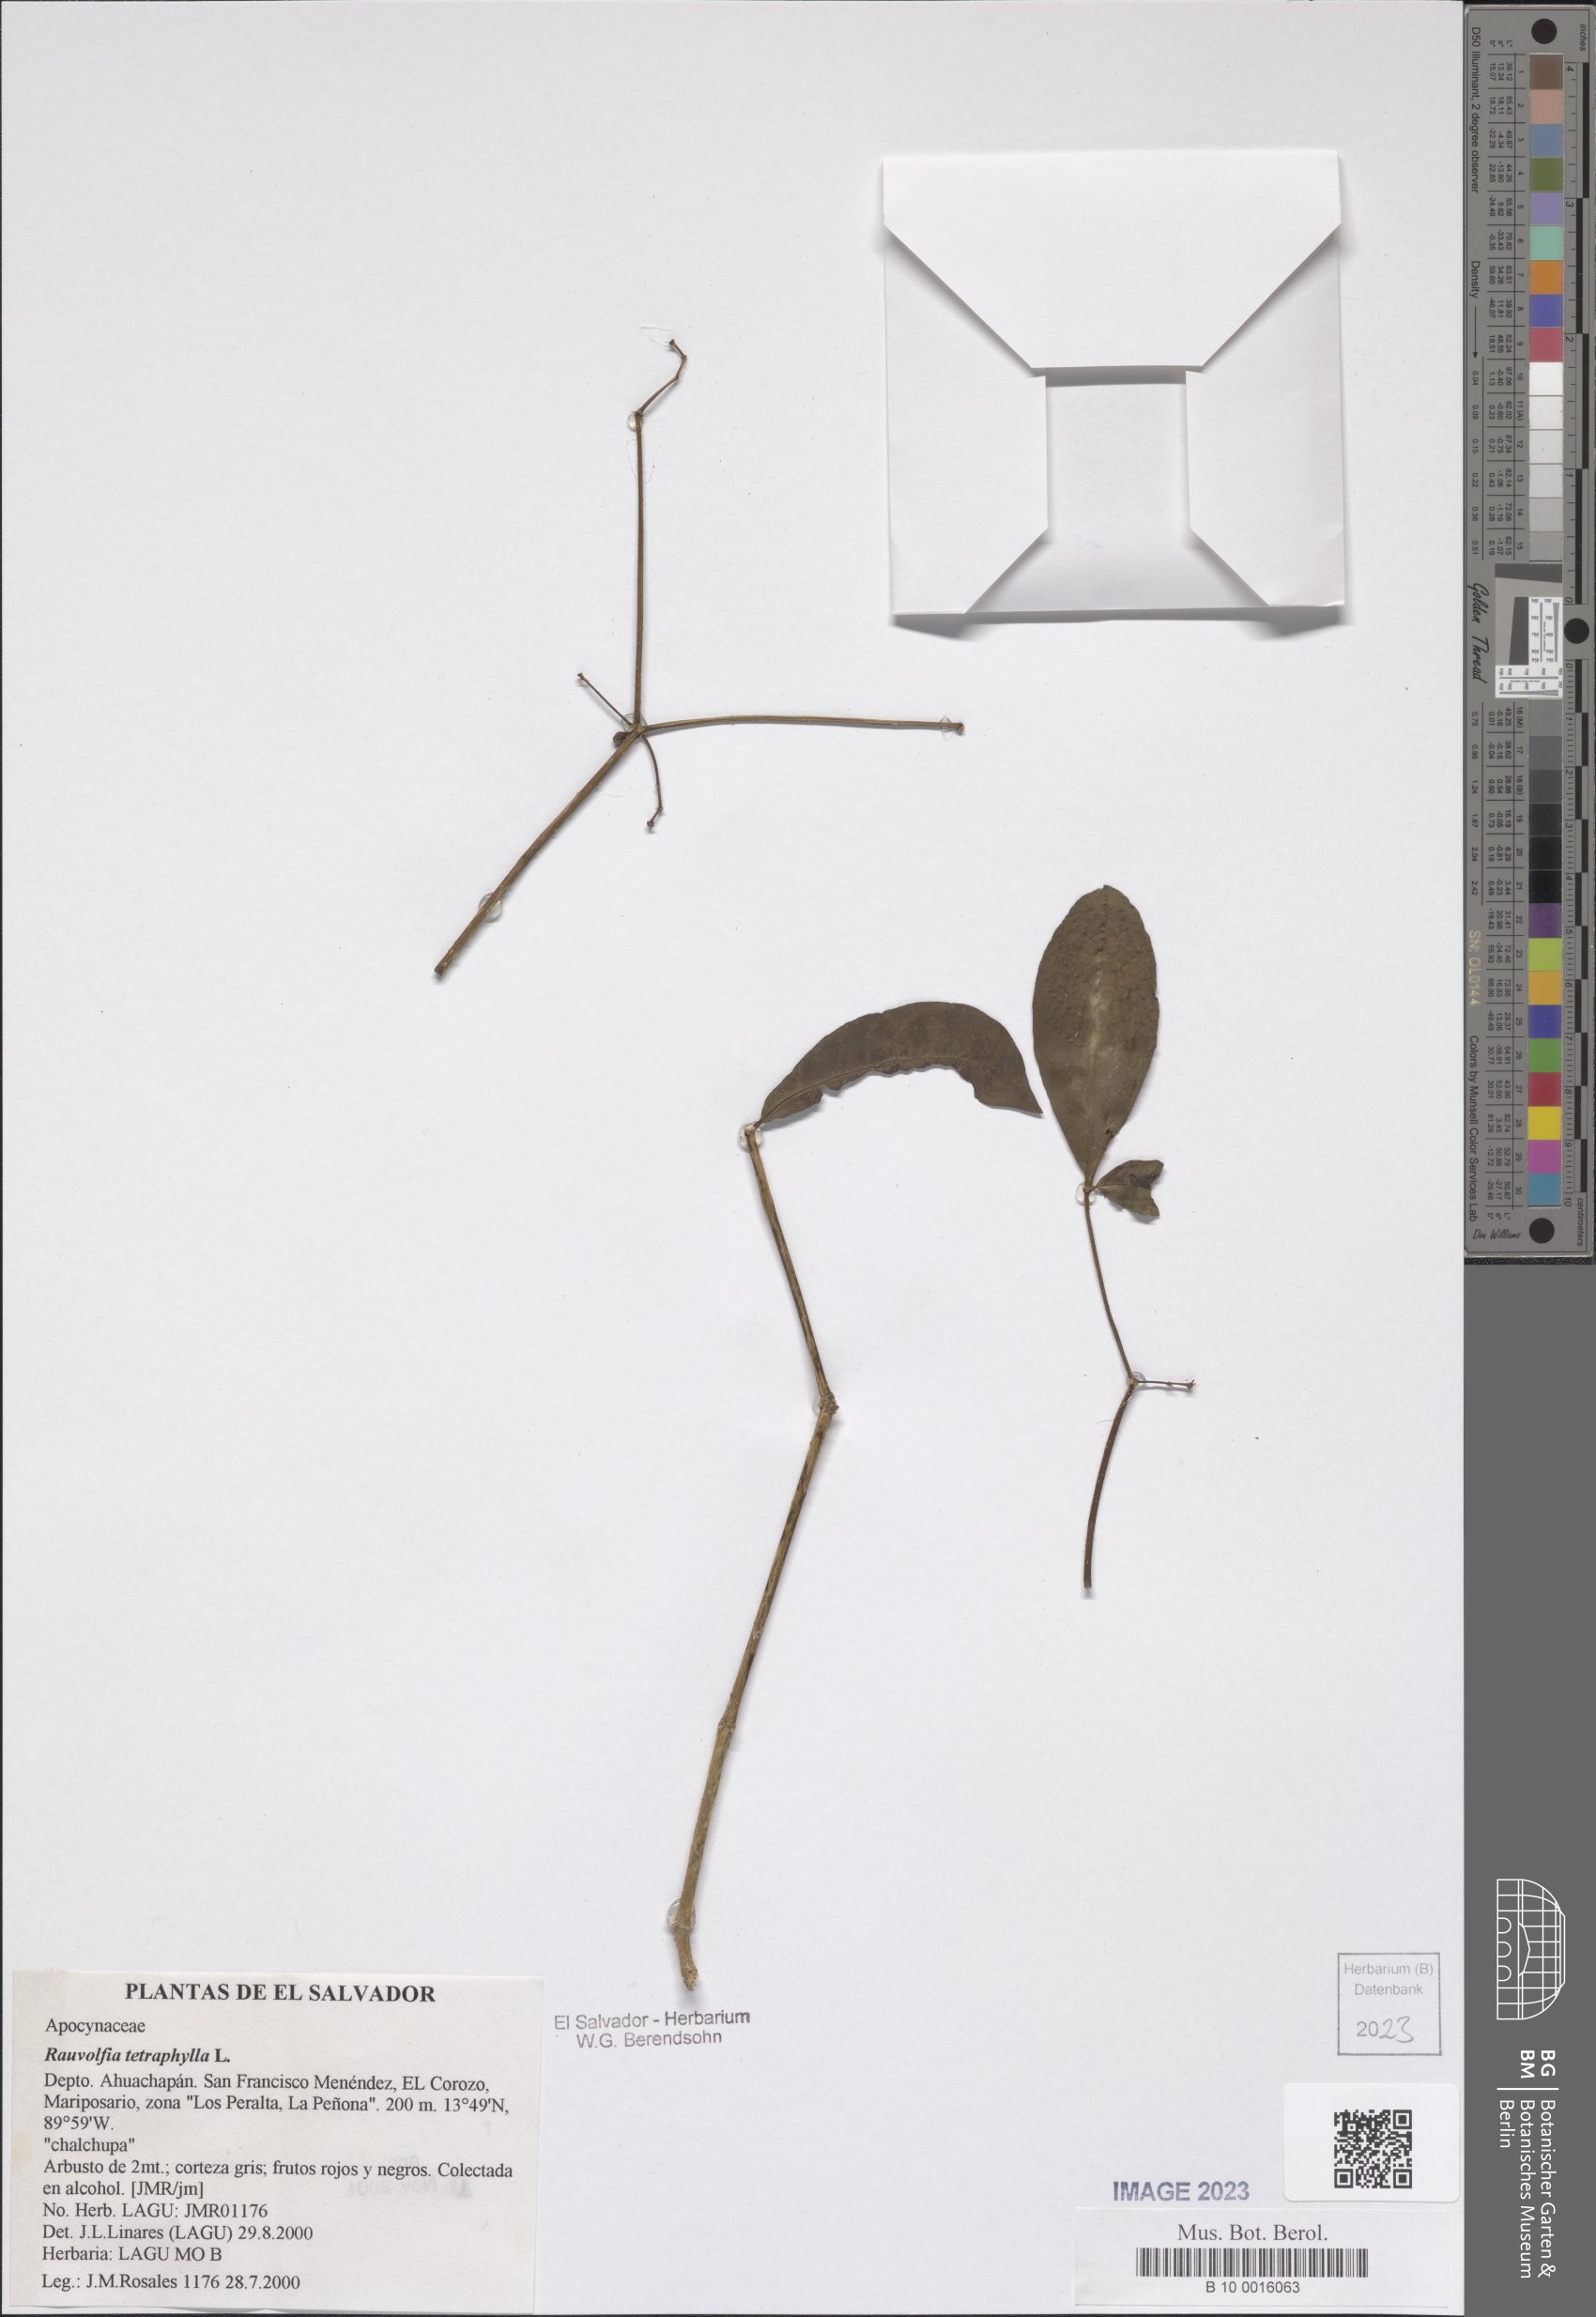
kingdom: Plantae
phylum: Tracheophyta
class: Magnoliopsida
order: Gentianales
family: Apocynaceae
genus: Rauvolfia
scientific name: Rauvolfia tetraphylla
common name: Four-leaf devil-pepper
